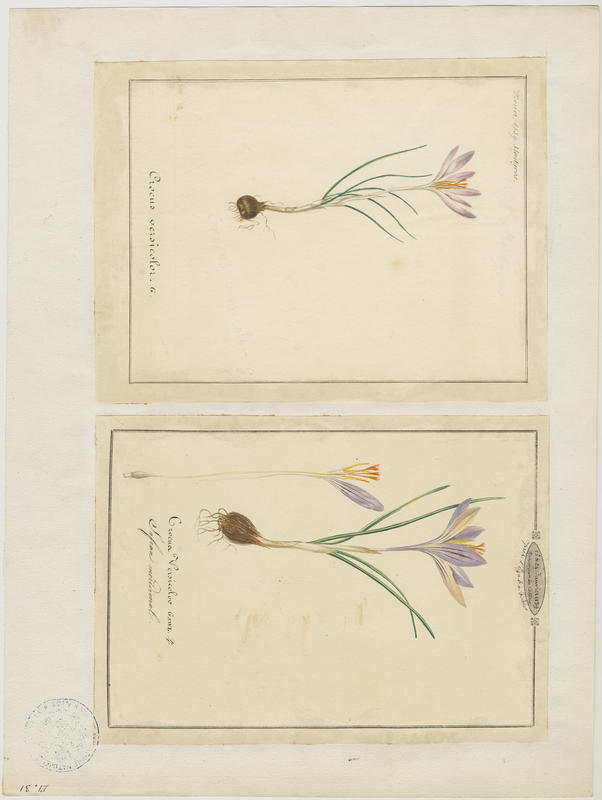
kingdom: Plantae
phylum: Tracheophyta
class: Liliopsida
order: Asparagales
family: Iridaceae
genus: Crocus
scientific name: Crocus versicolor
